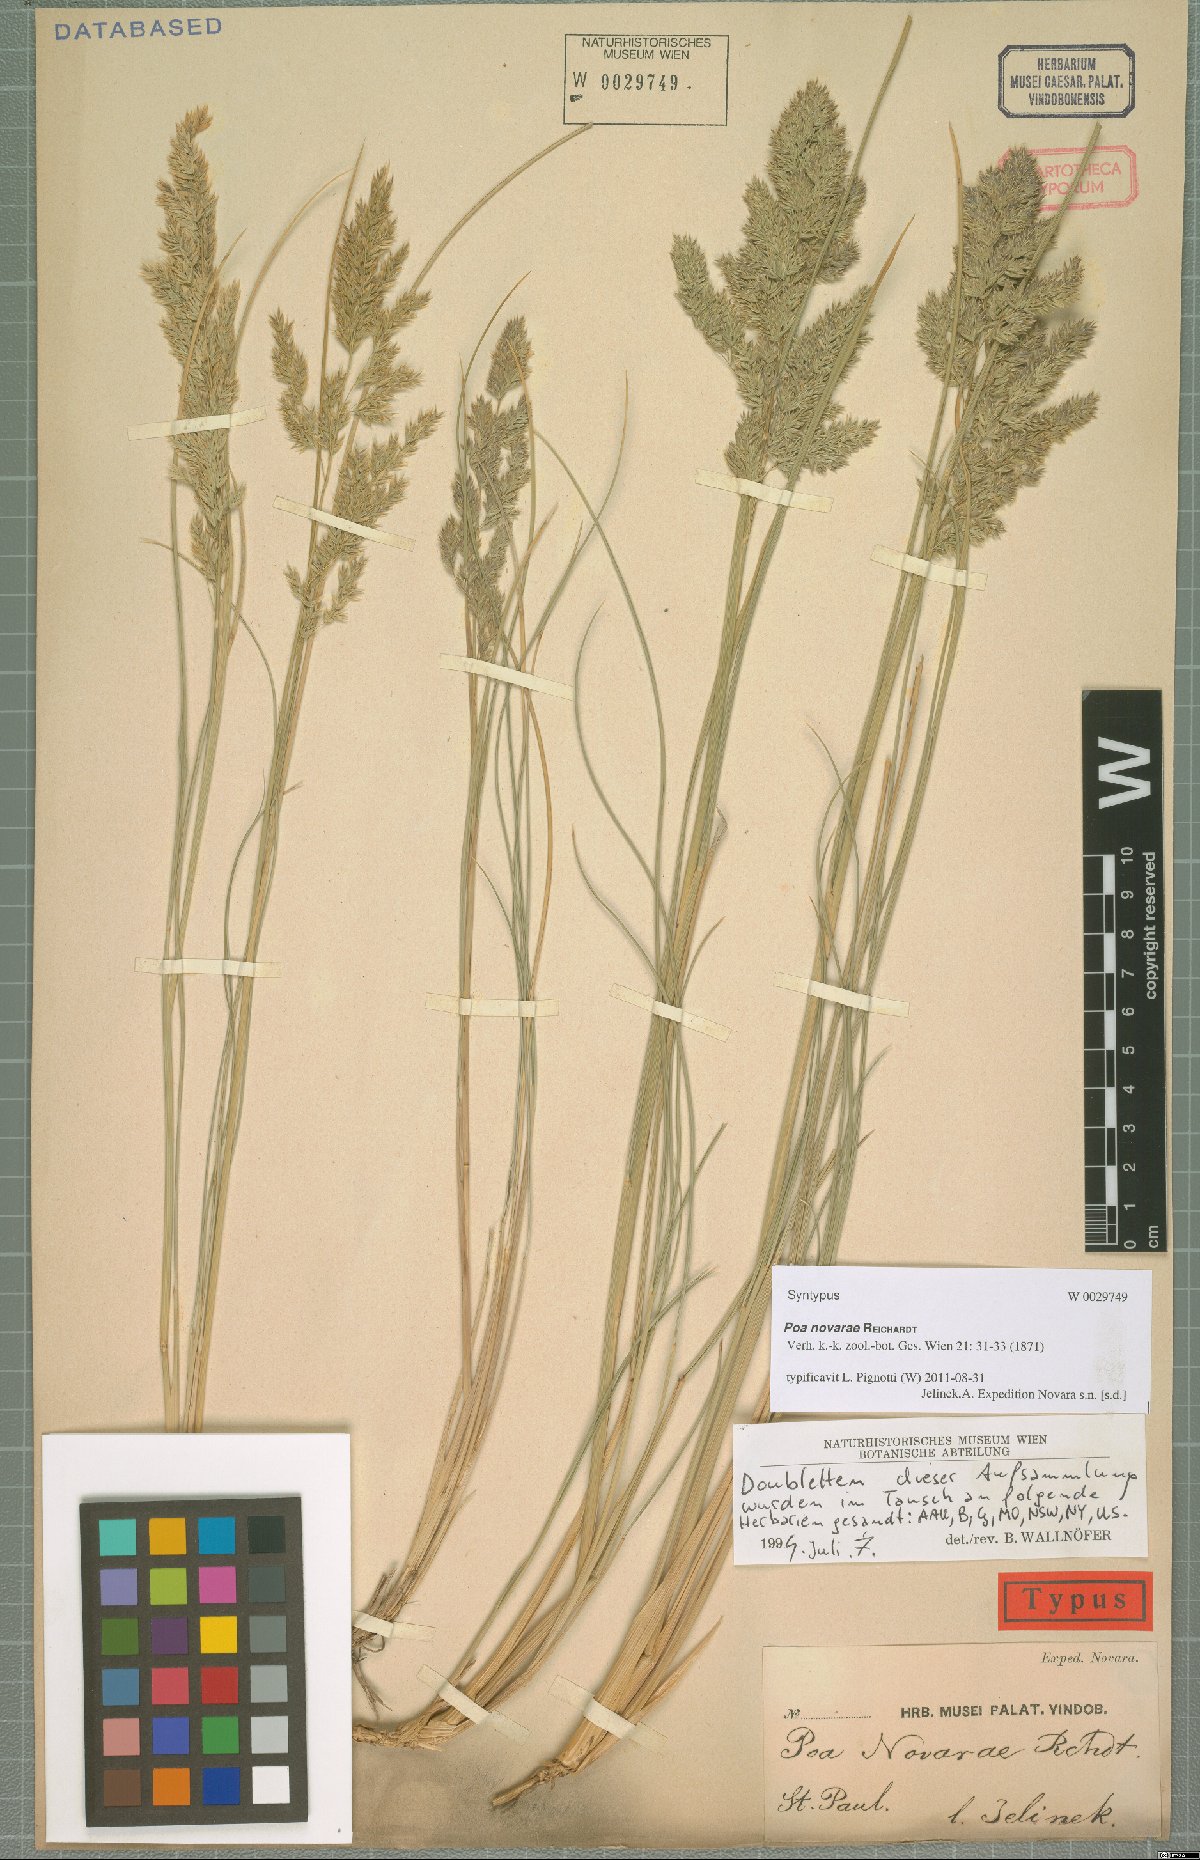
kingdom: Plantae
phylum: Tracheophyta
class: Liliopsida
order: Poales
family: Poaceae
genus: Poa
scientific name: Poa novarae
